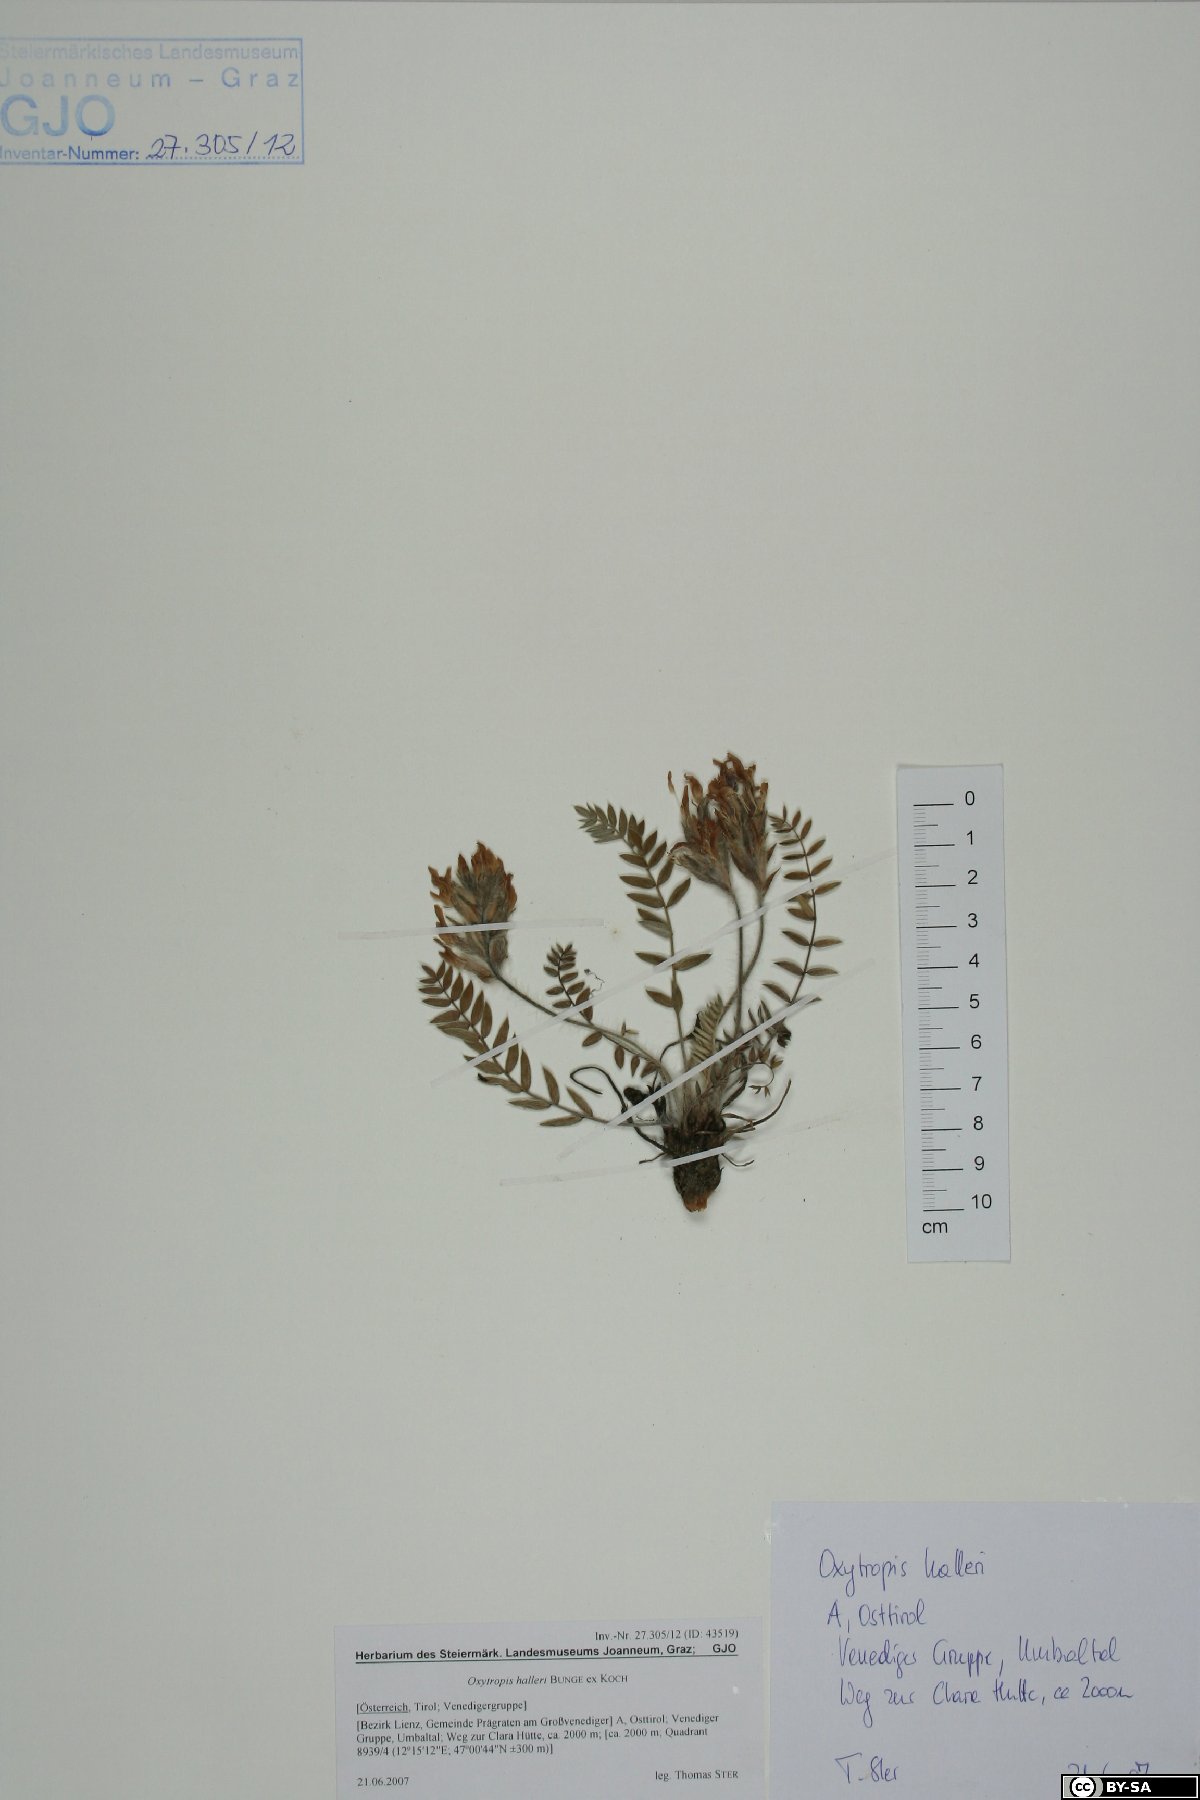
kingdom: Plantae
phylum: Tracheophyta
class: Magnoliopsida
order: Fabales
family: Fabaceae
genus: Oxytropis
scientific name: Oxytropis halleri
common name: Purple oxytropis
